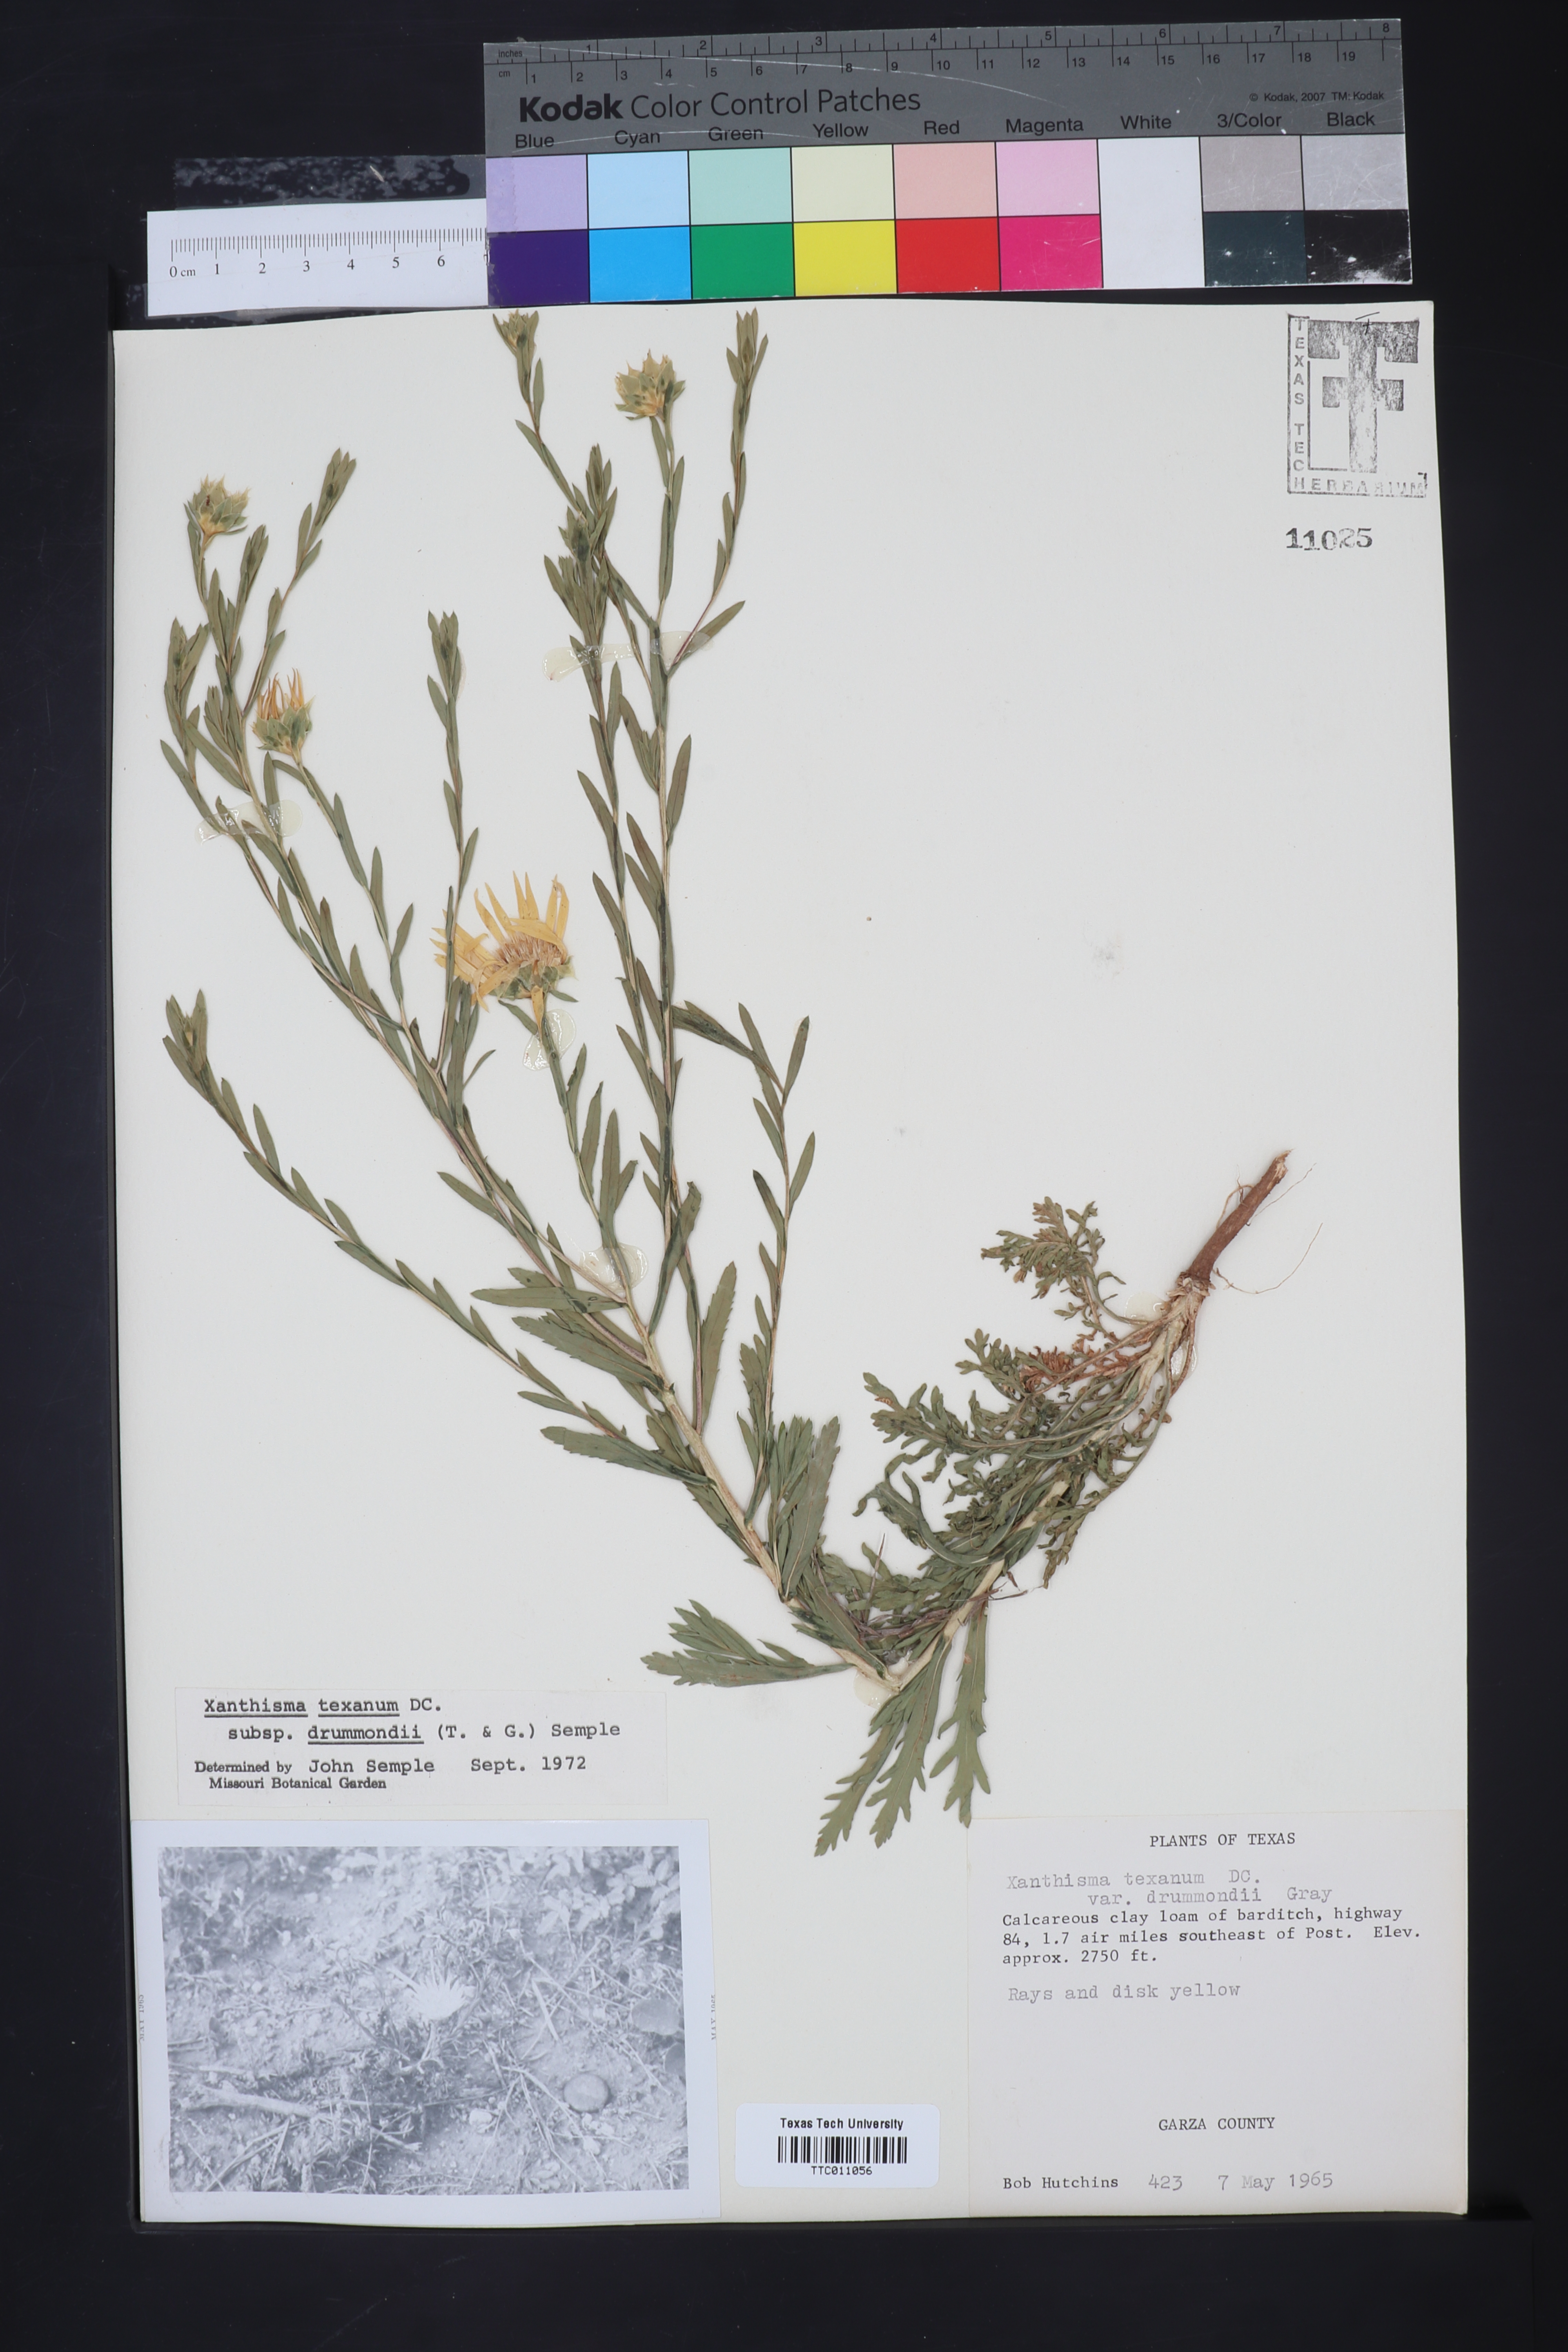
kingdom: Plantae
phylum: Tracheophyta
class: Magnoliopsida
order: Asterales
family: Asteraceae
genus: Xanthisma
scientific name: Xanthisma texanum
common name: Texas sleepy daisy
